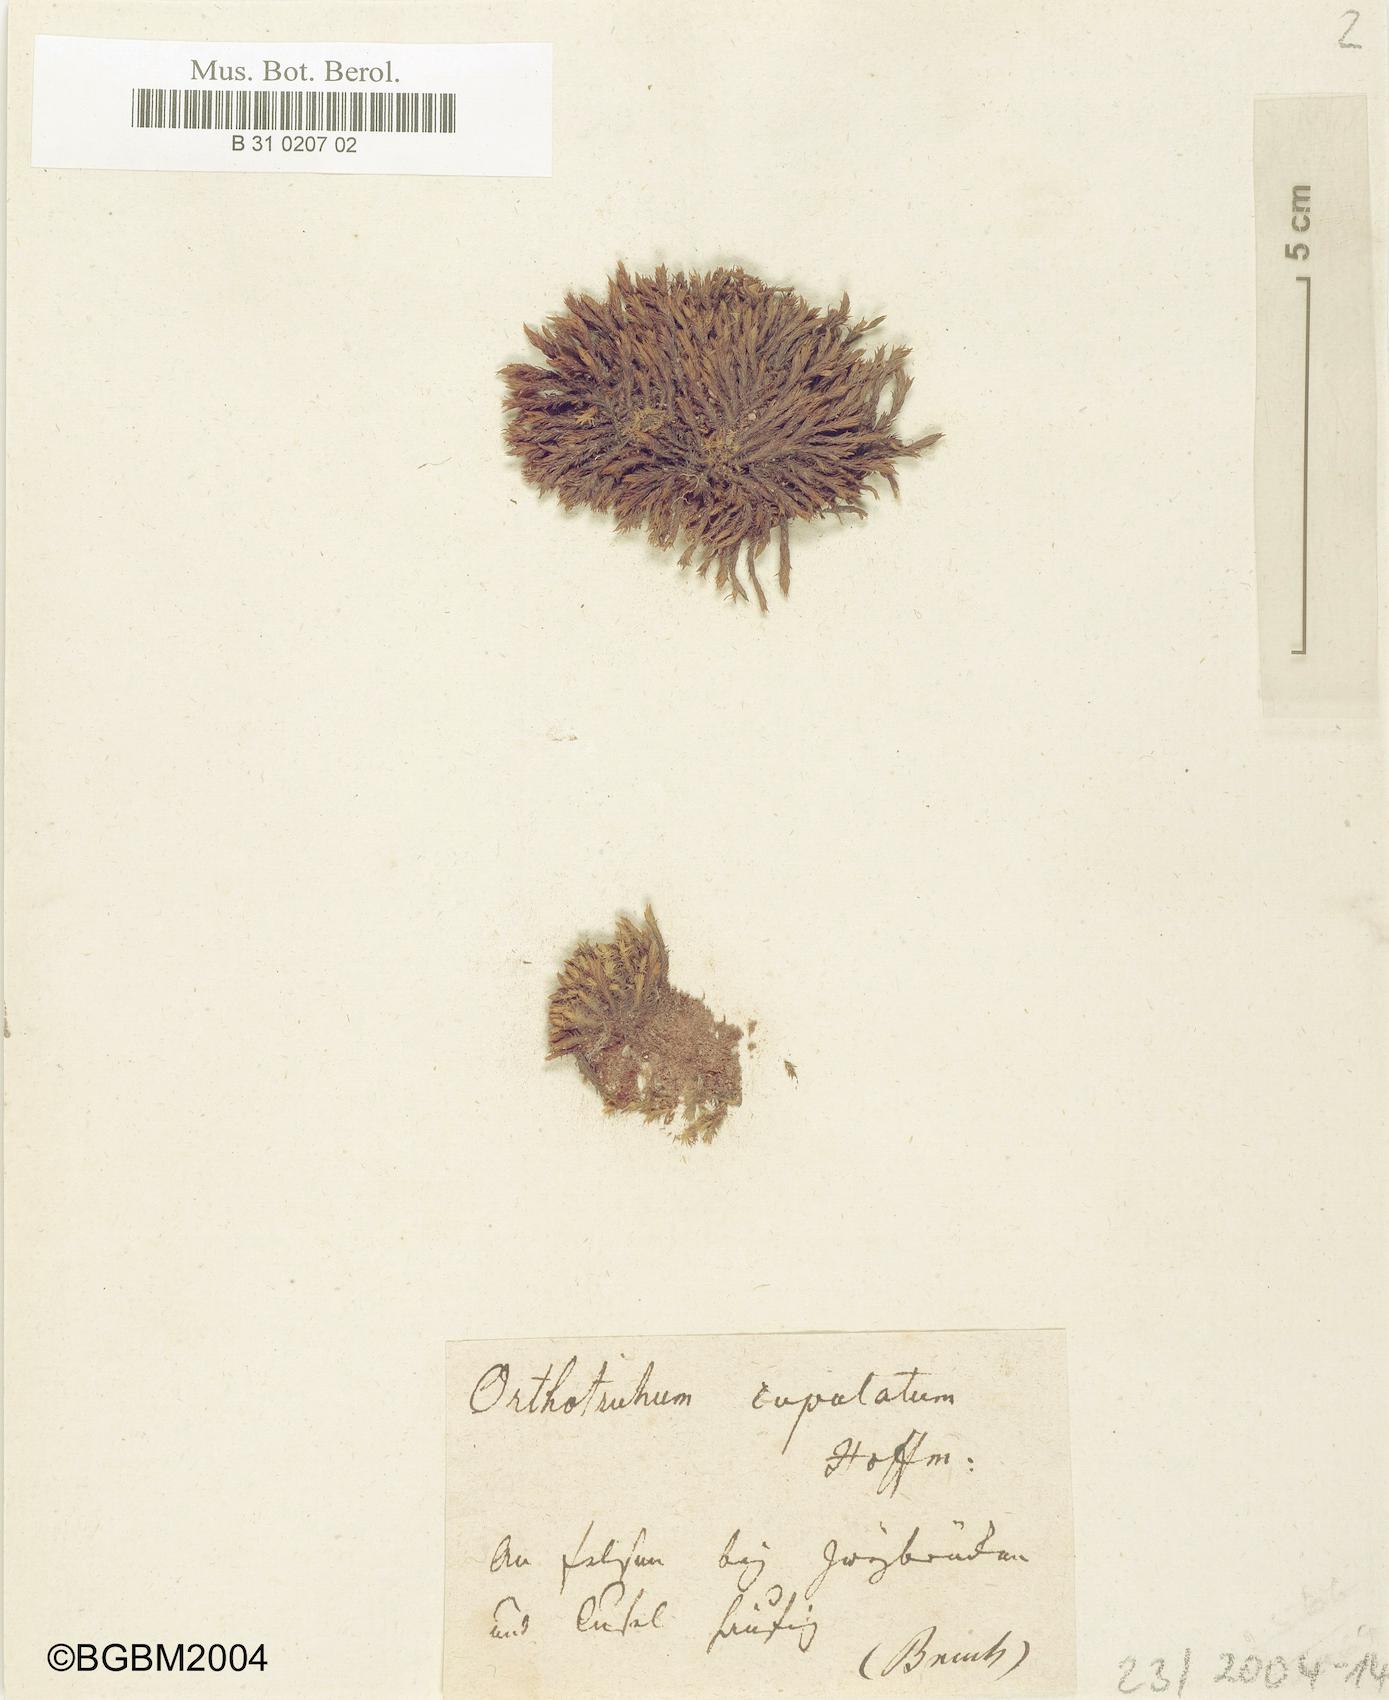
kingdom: Plantae
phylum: Bryophyta
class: Bryopsida
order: Orthotrichales
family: Orthotrichaceae
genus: Orthotrichum
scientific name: Orthotrichum cupulatum
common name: Hooded bristle-moss
